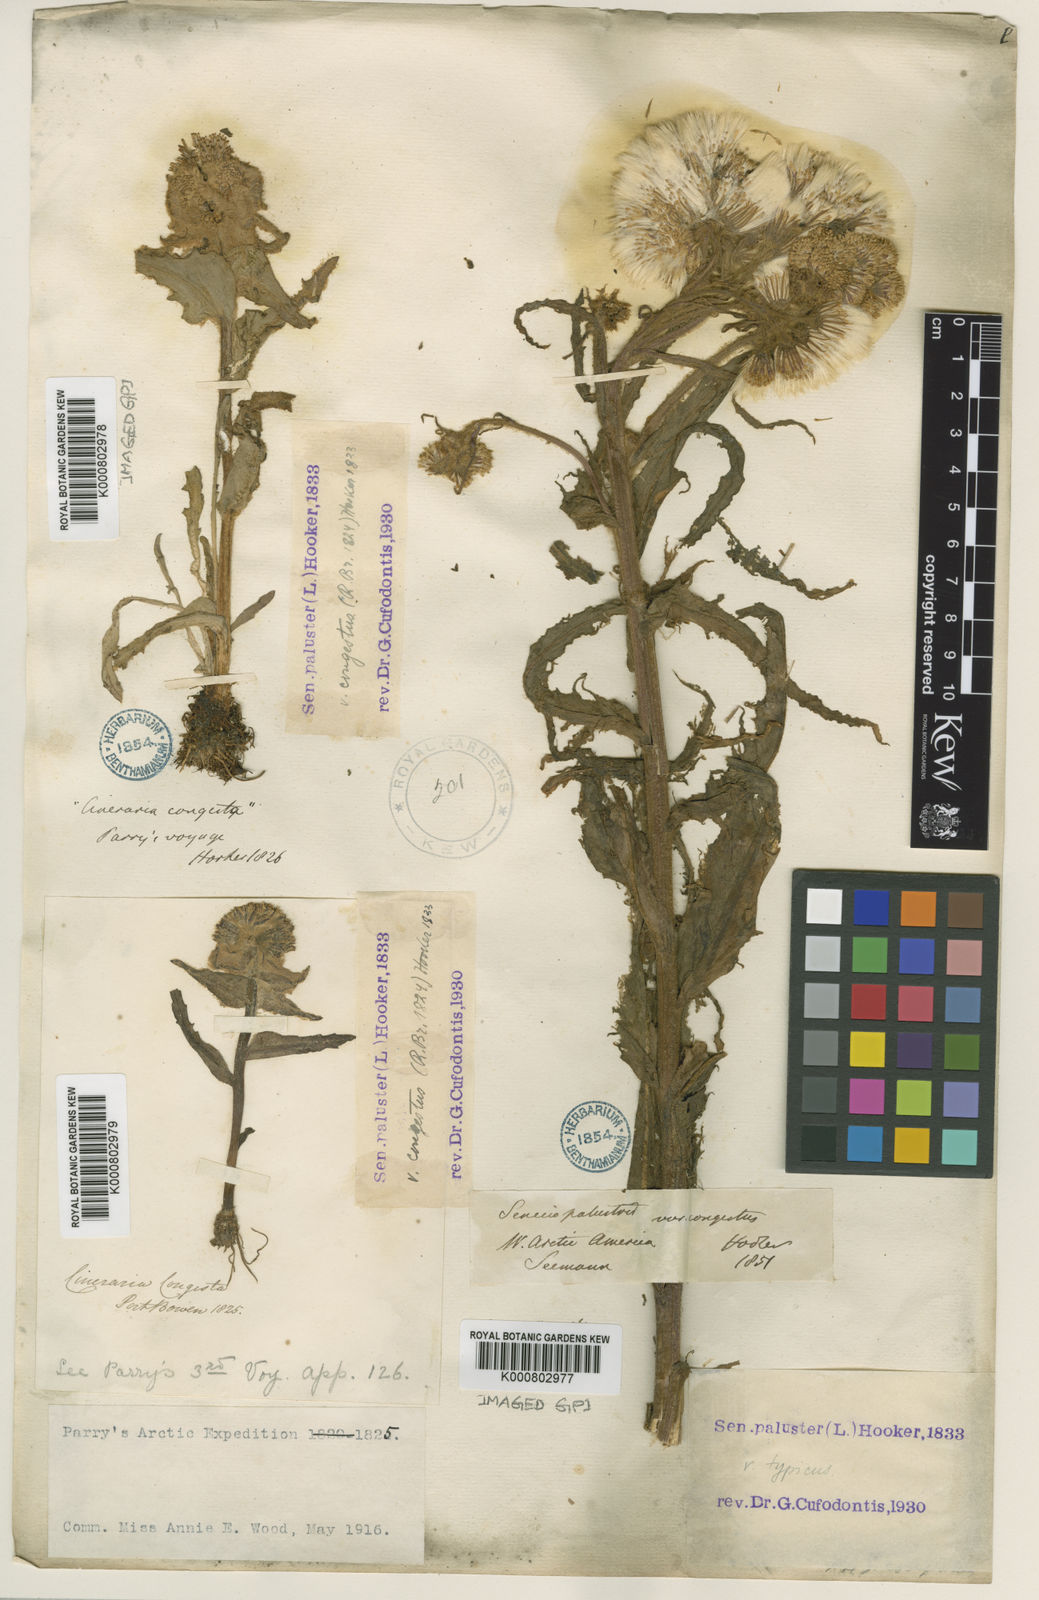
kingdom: Plantae
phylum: Tracheophyta
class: Magnoliopsida
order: Asterales
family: Asteraceae
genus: Tephroseris
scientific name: Tephroseris
